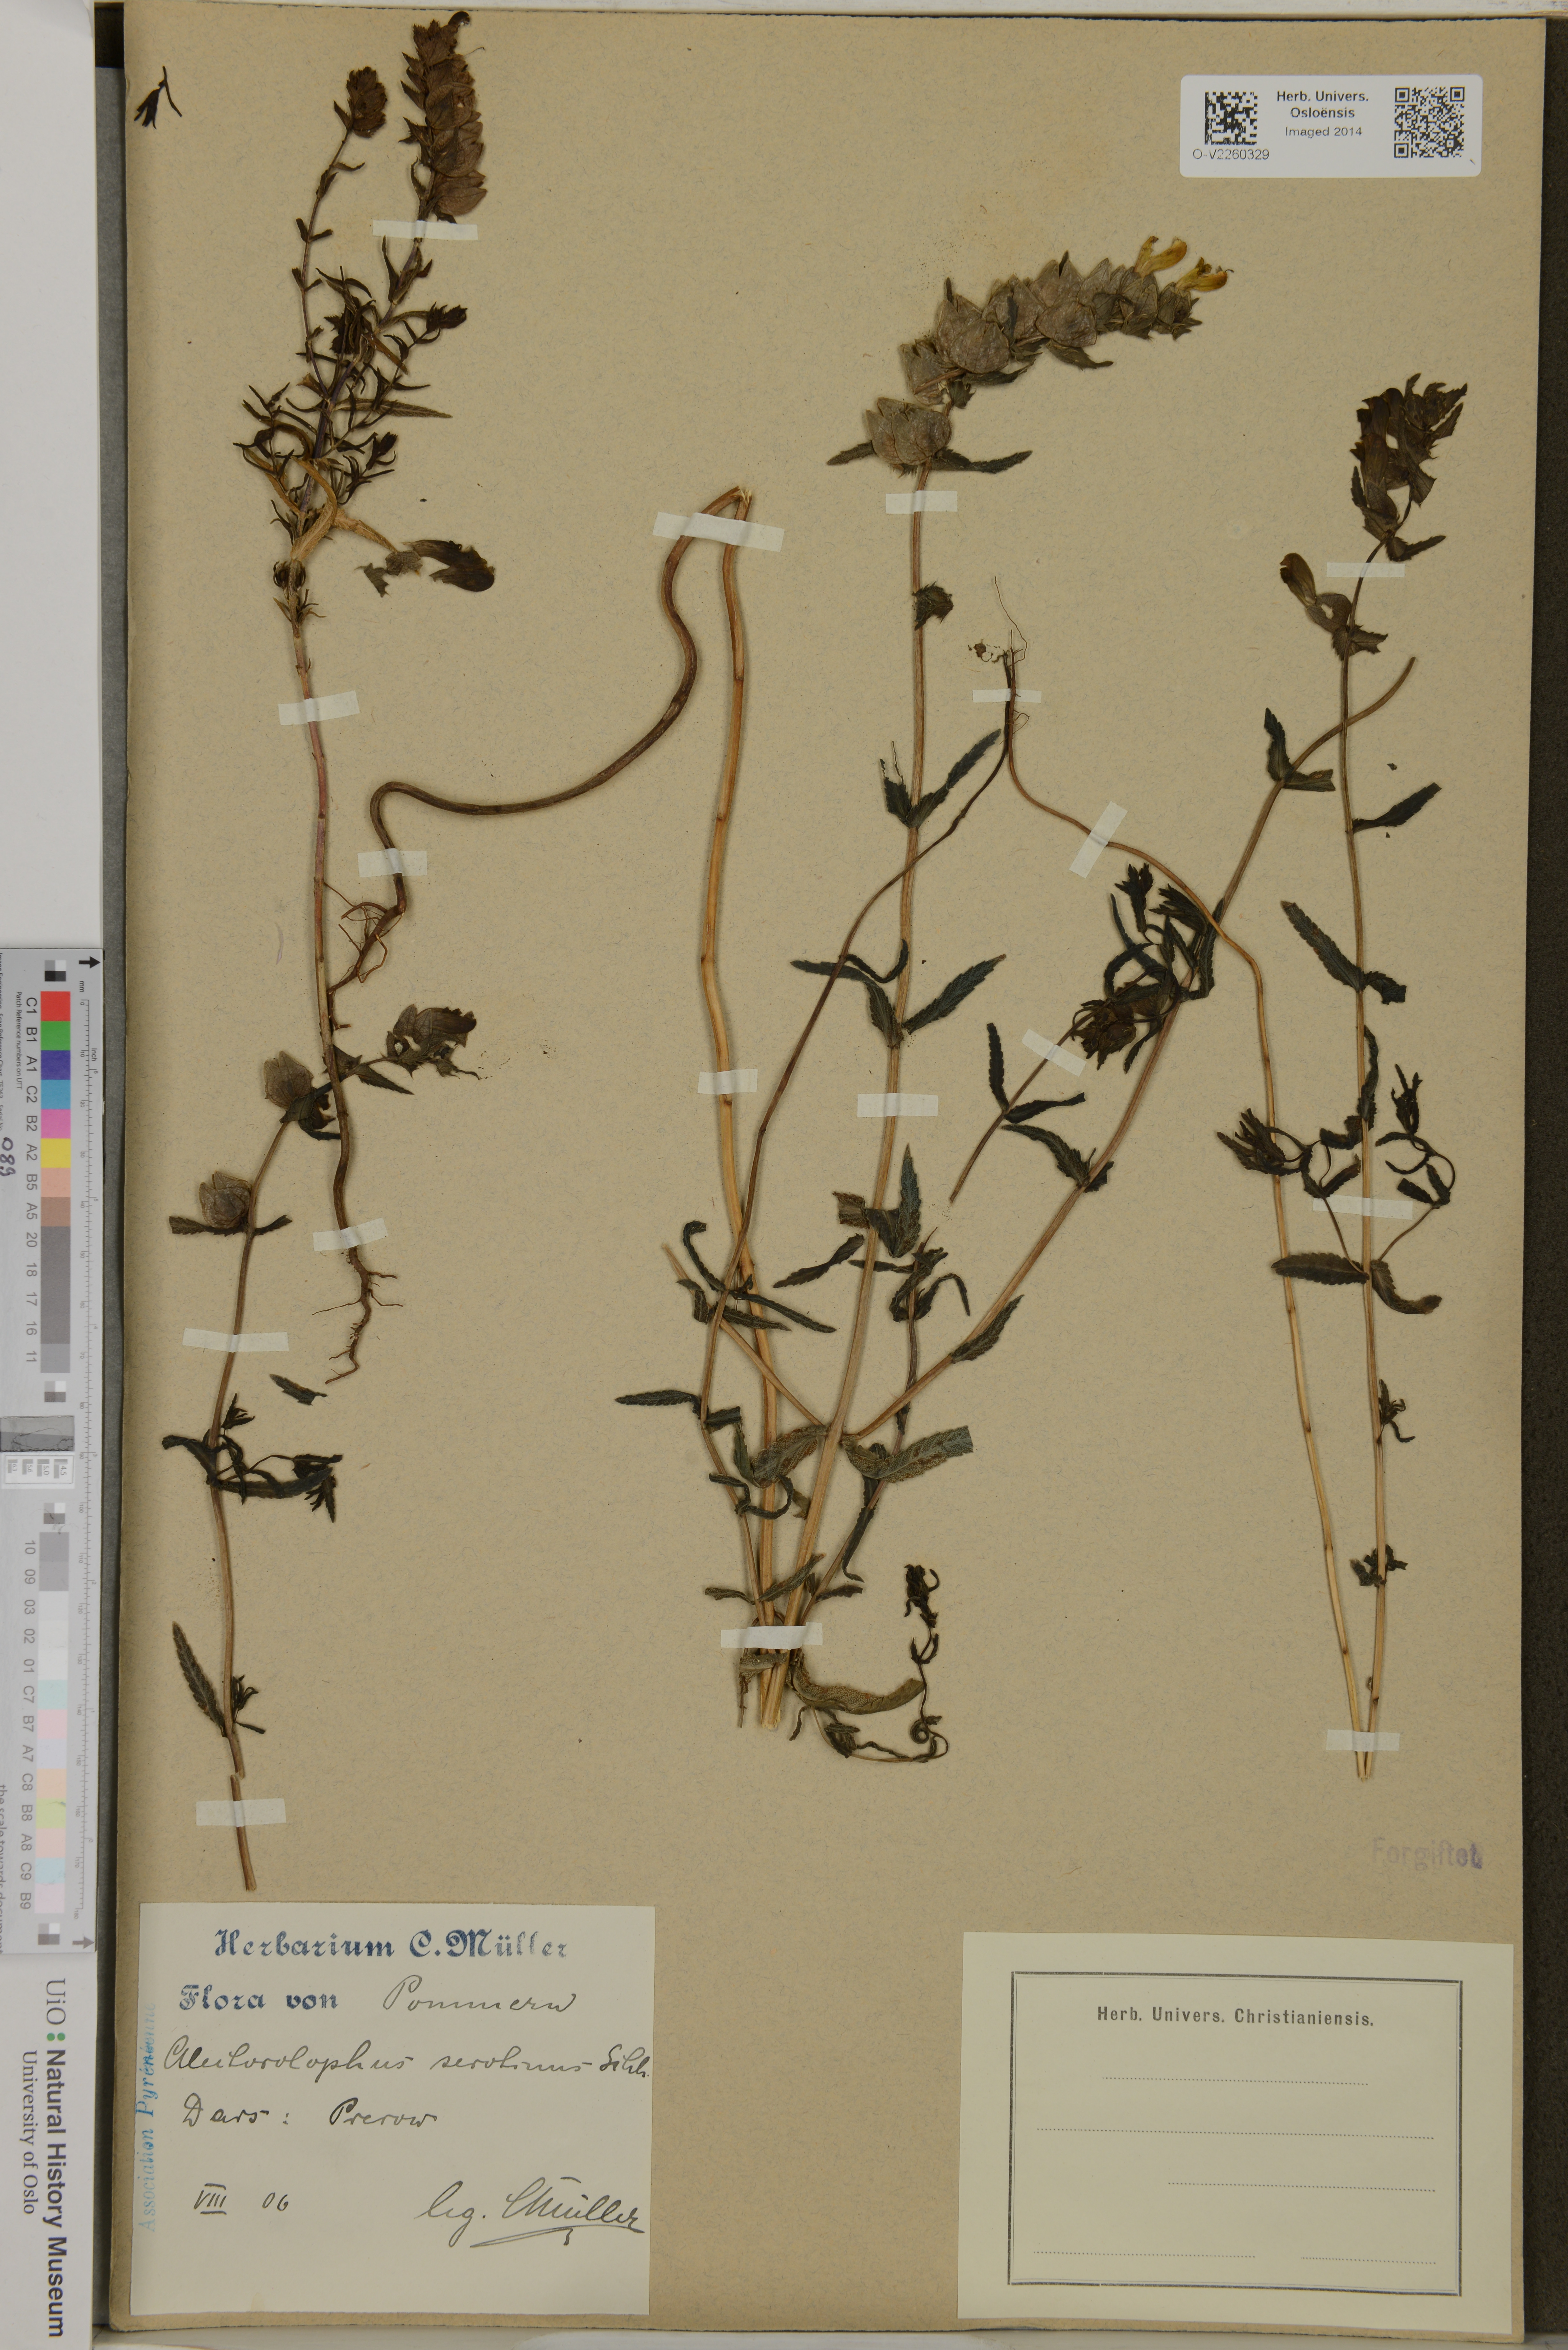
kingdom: Plantae
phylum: Tracheophyta
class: Magnoliopsida
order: Lamiales
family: Orobanchaceae
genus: Rhinanthus
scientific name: Rhinanthus
